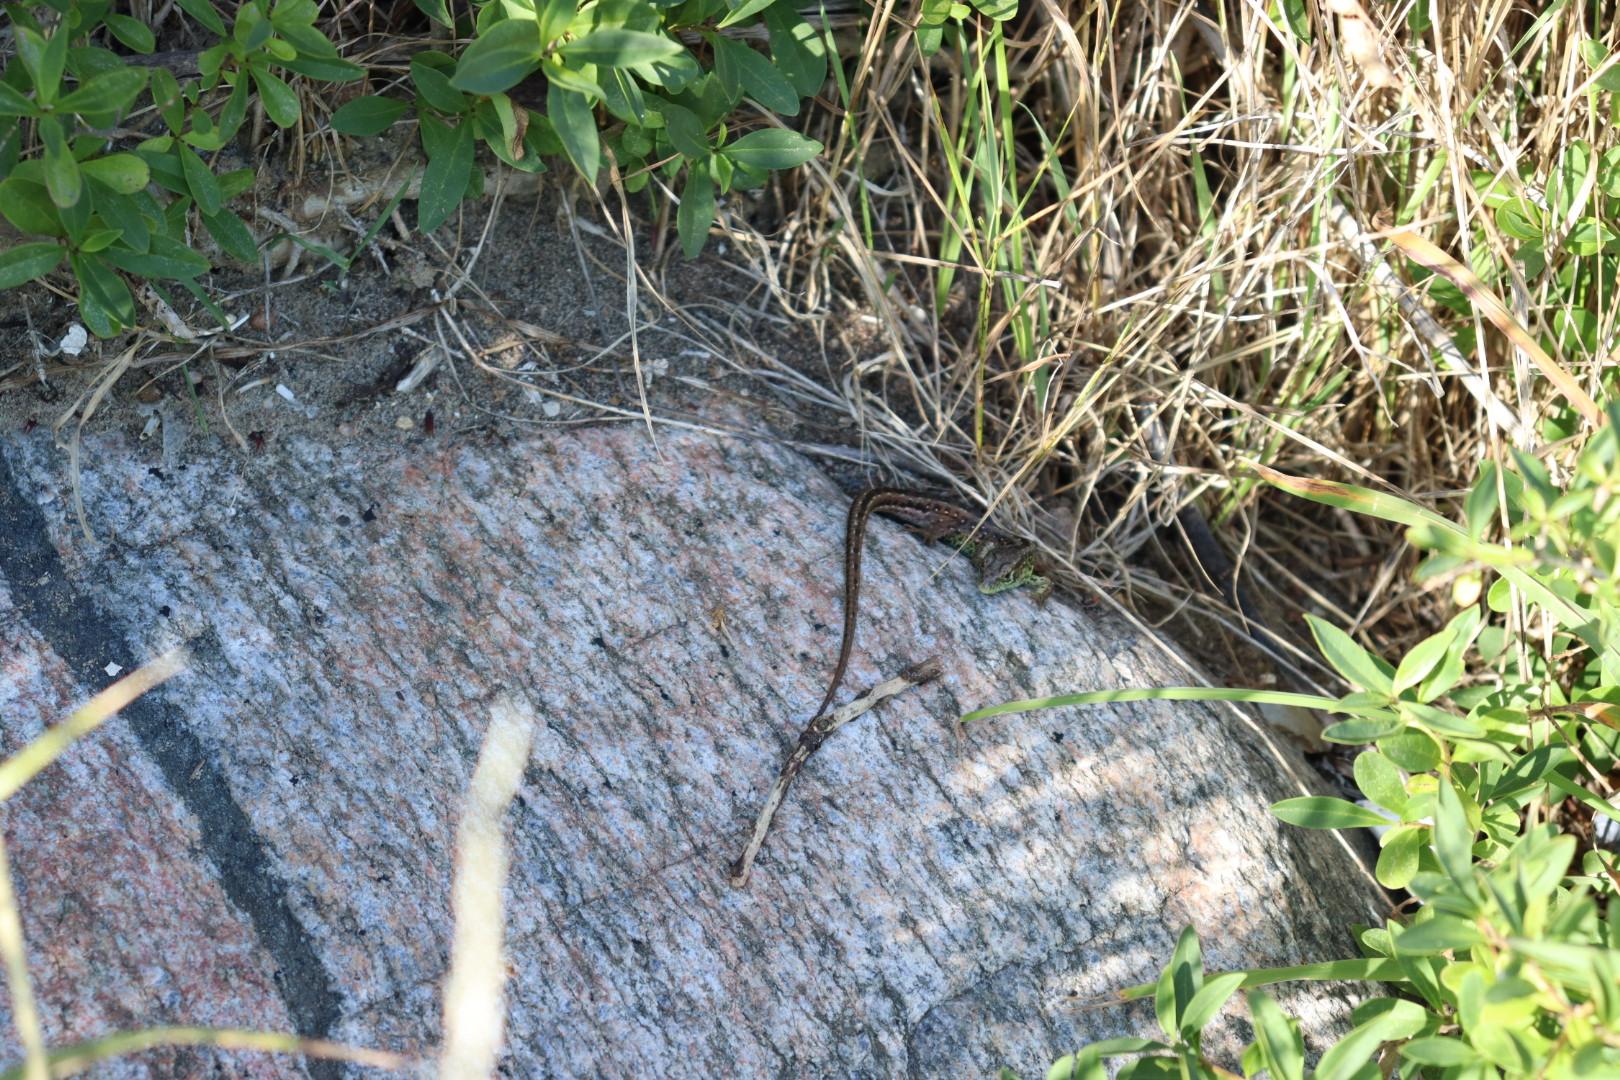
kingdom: Animalia
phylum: Chordata
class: Squamata
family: Lacertidae
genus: Lacerta
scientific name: Lacerta agilis
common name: Markfirben
